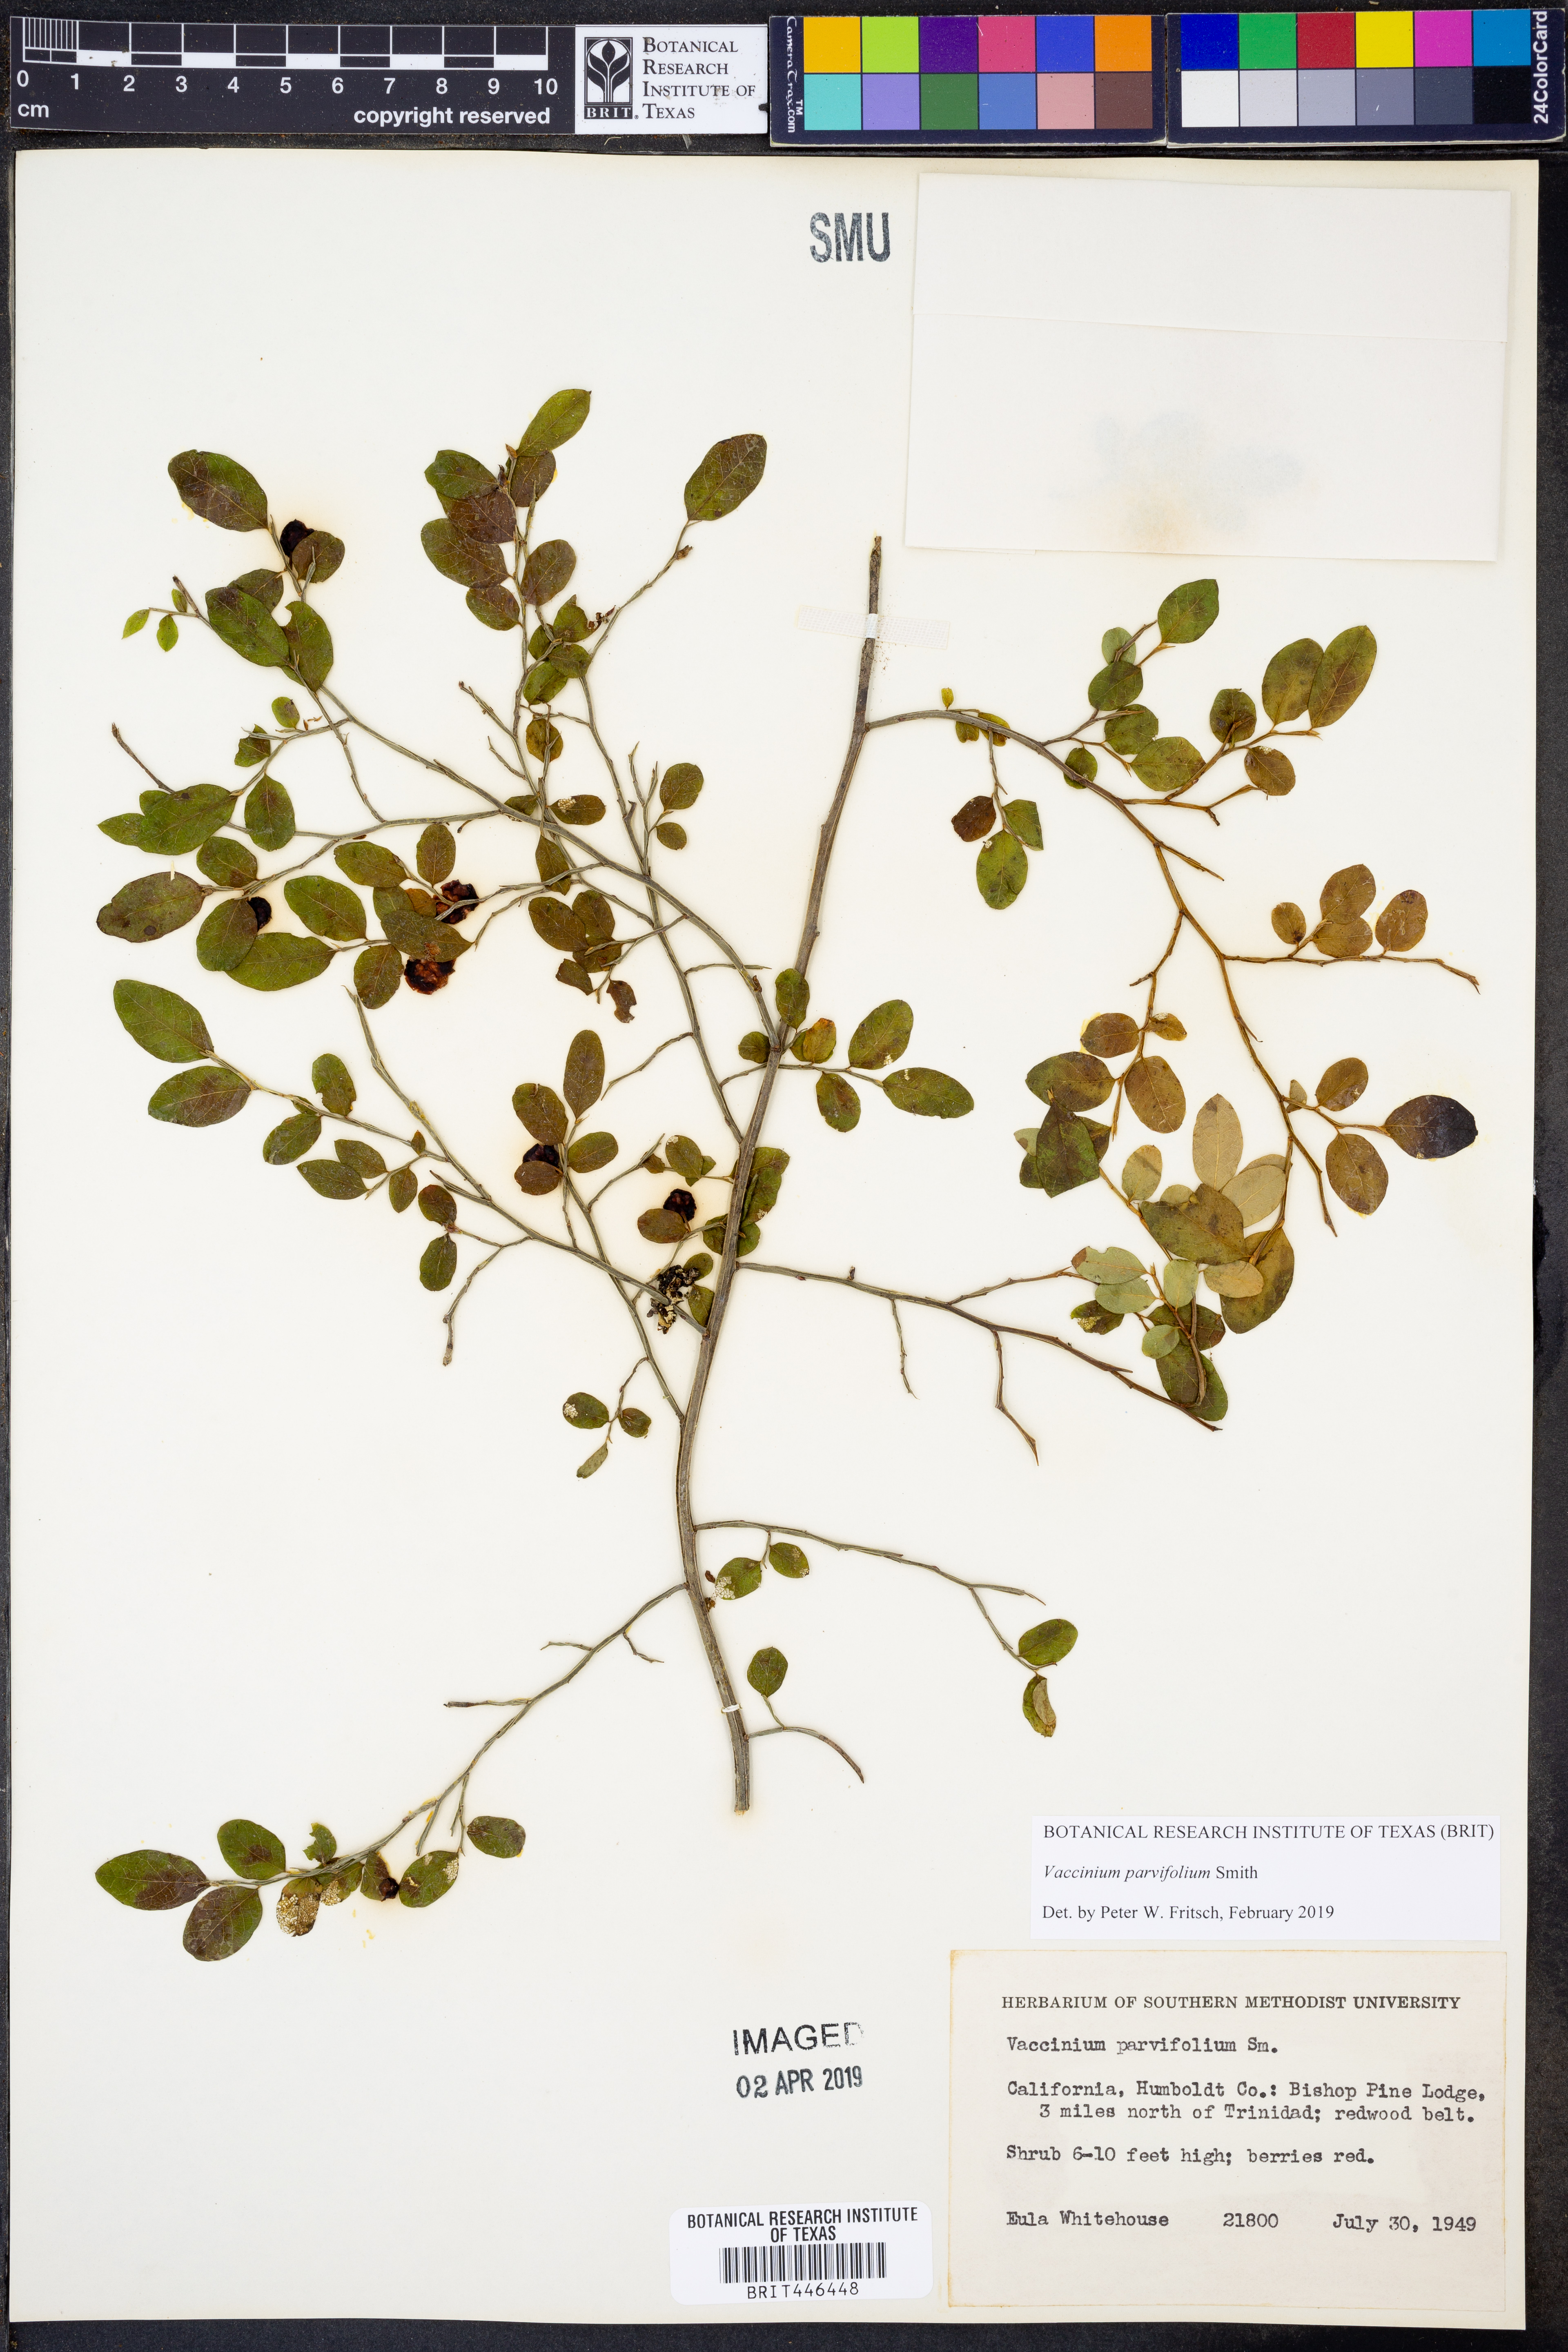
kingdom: Plantae
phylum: Tracheophyta
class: Magnoliopsida
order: Ericales
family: Ericaceae
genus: Vaccinium
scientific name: Vaccinium parvifolium
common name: Red-huckleberry
